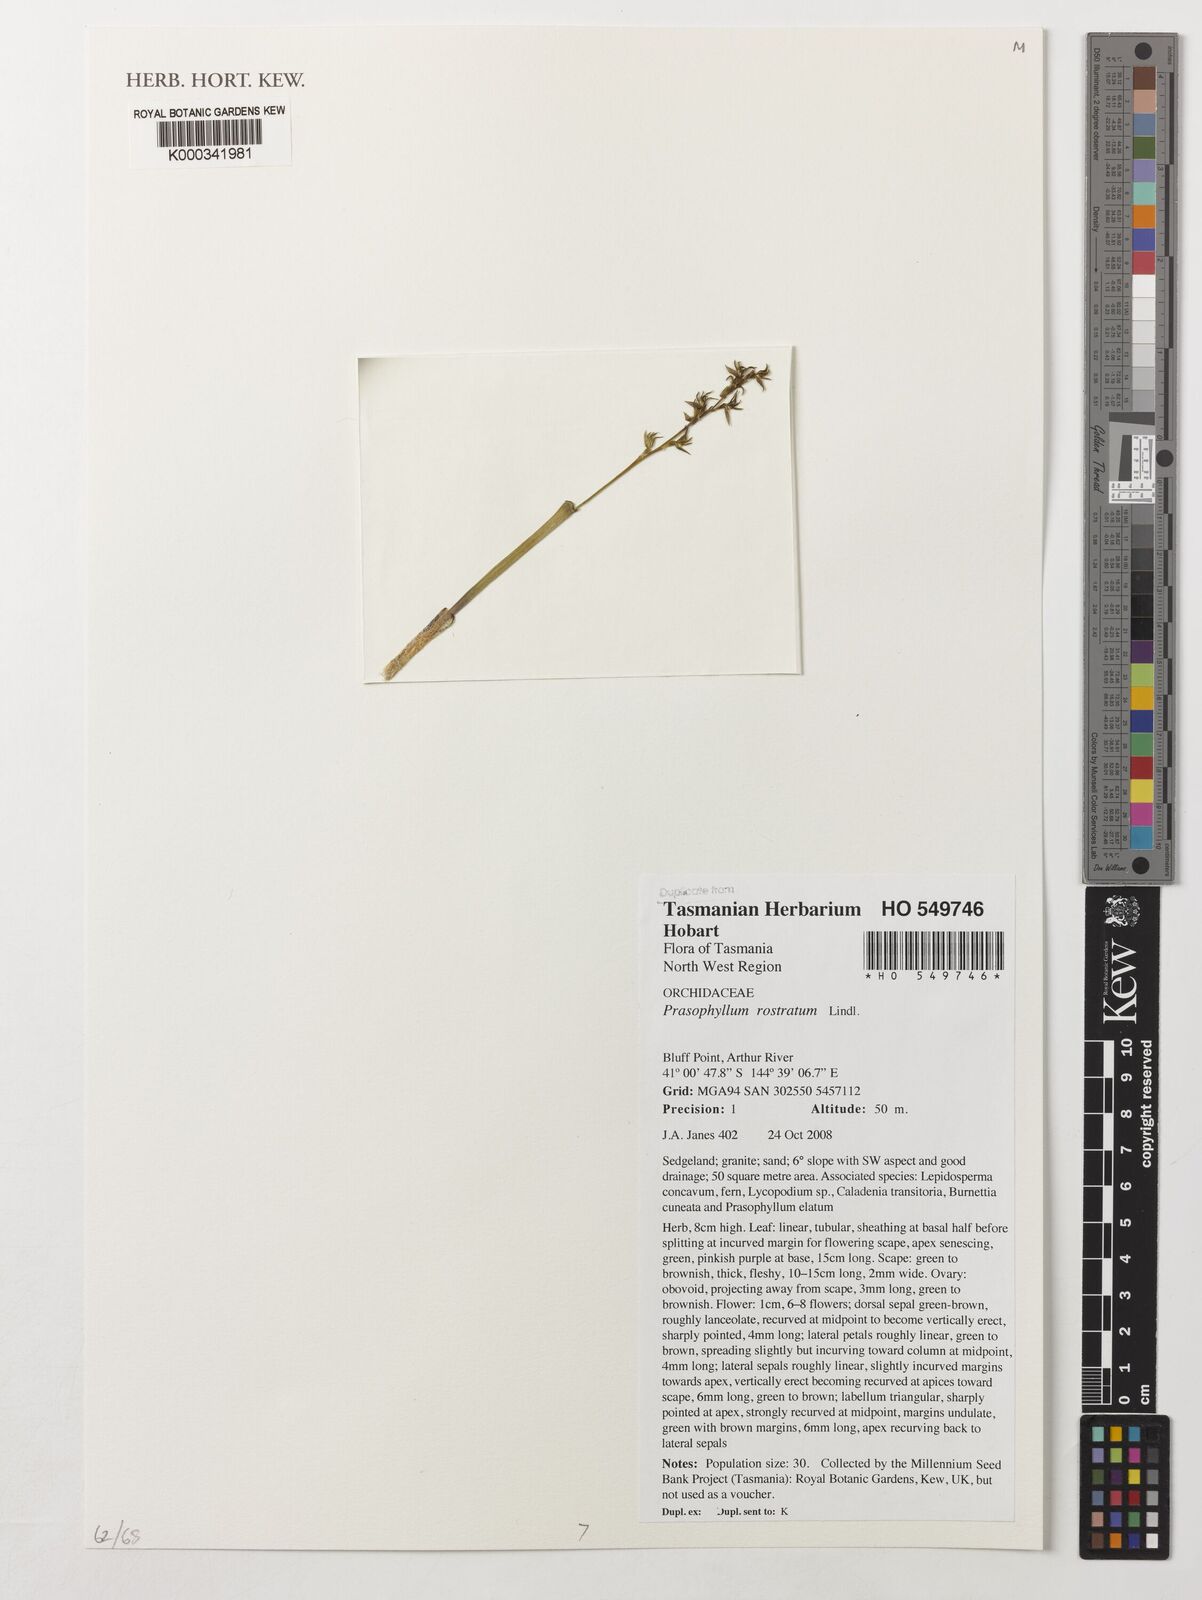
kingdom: Plantae
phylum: Tracheophyta
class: Liliopsida
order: Asparagales
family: Orchidaceae
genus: Prasophyllum
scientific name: Prasophyllum rostratum
